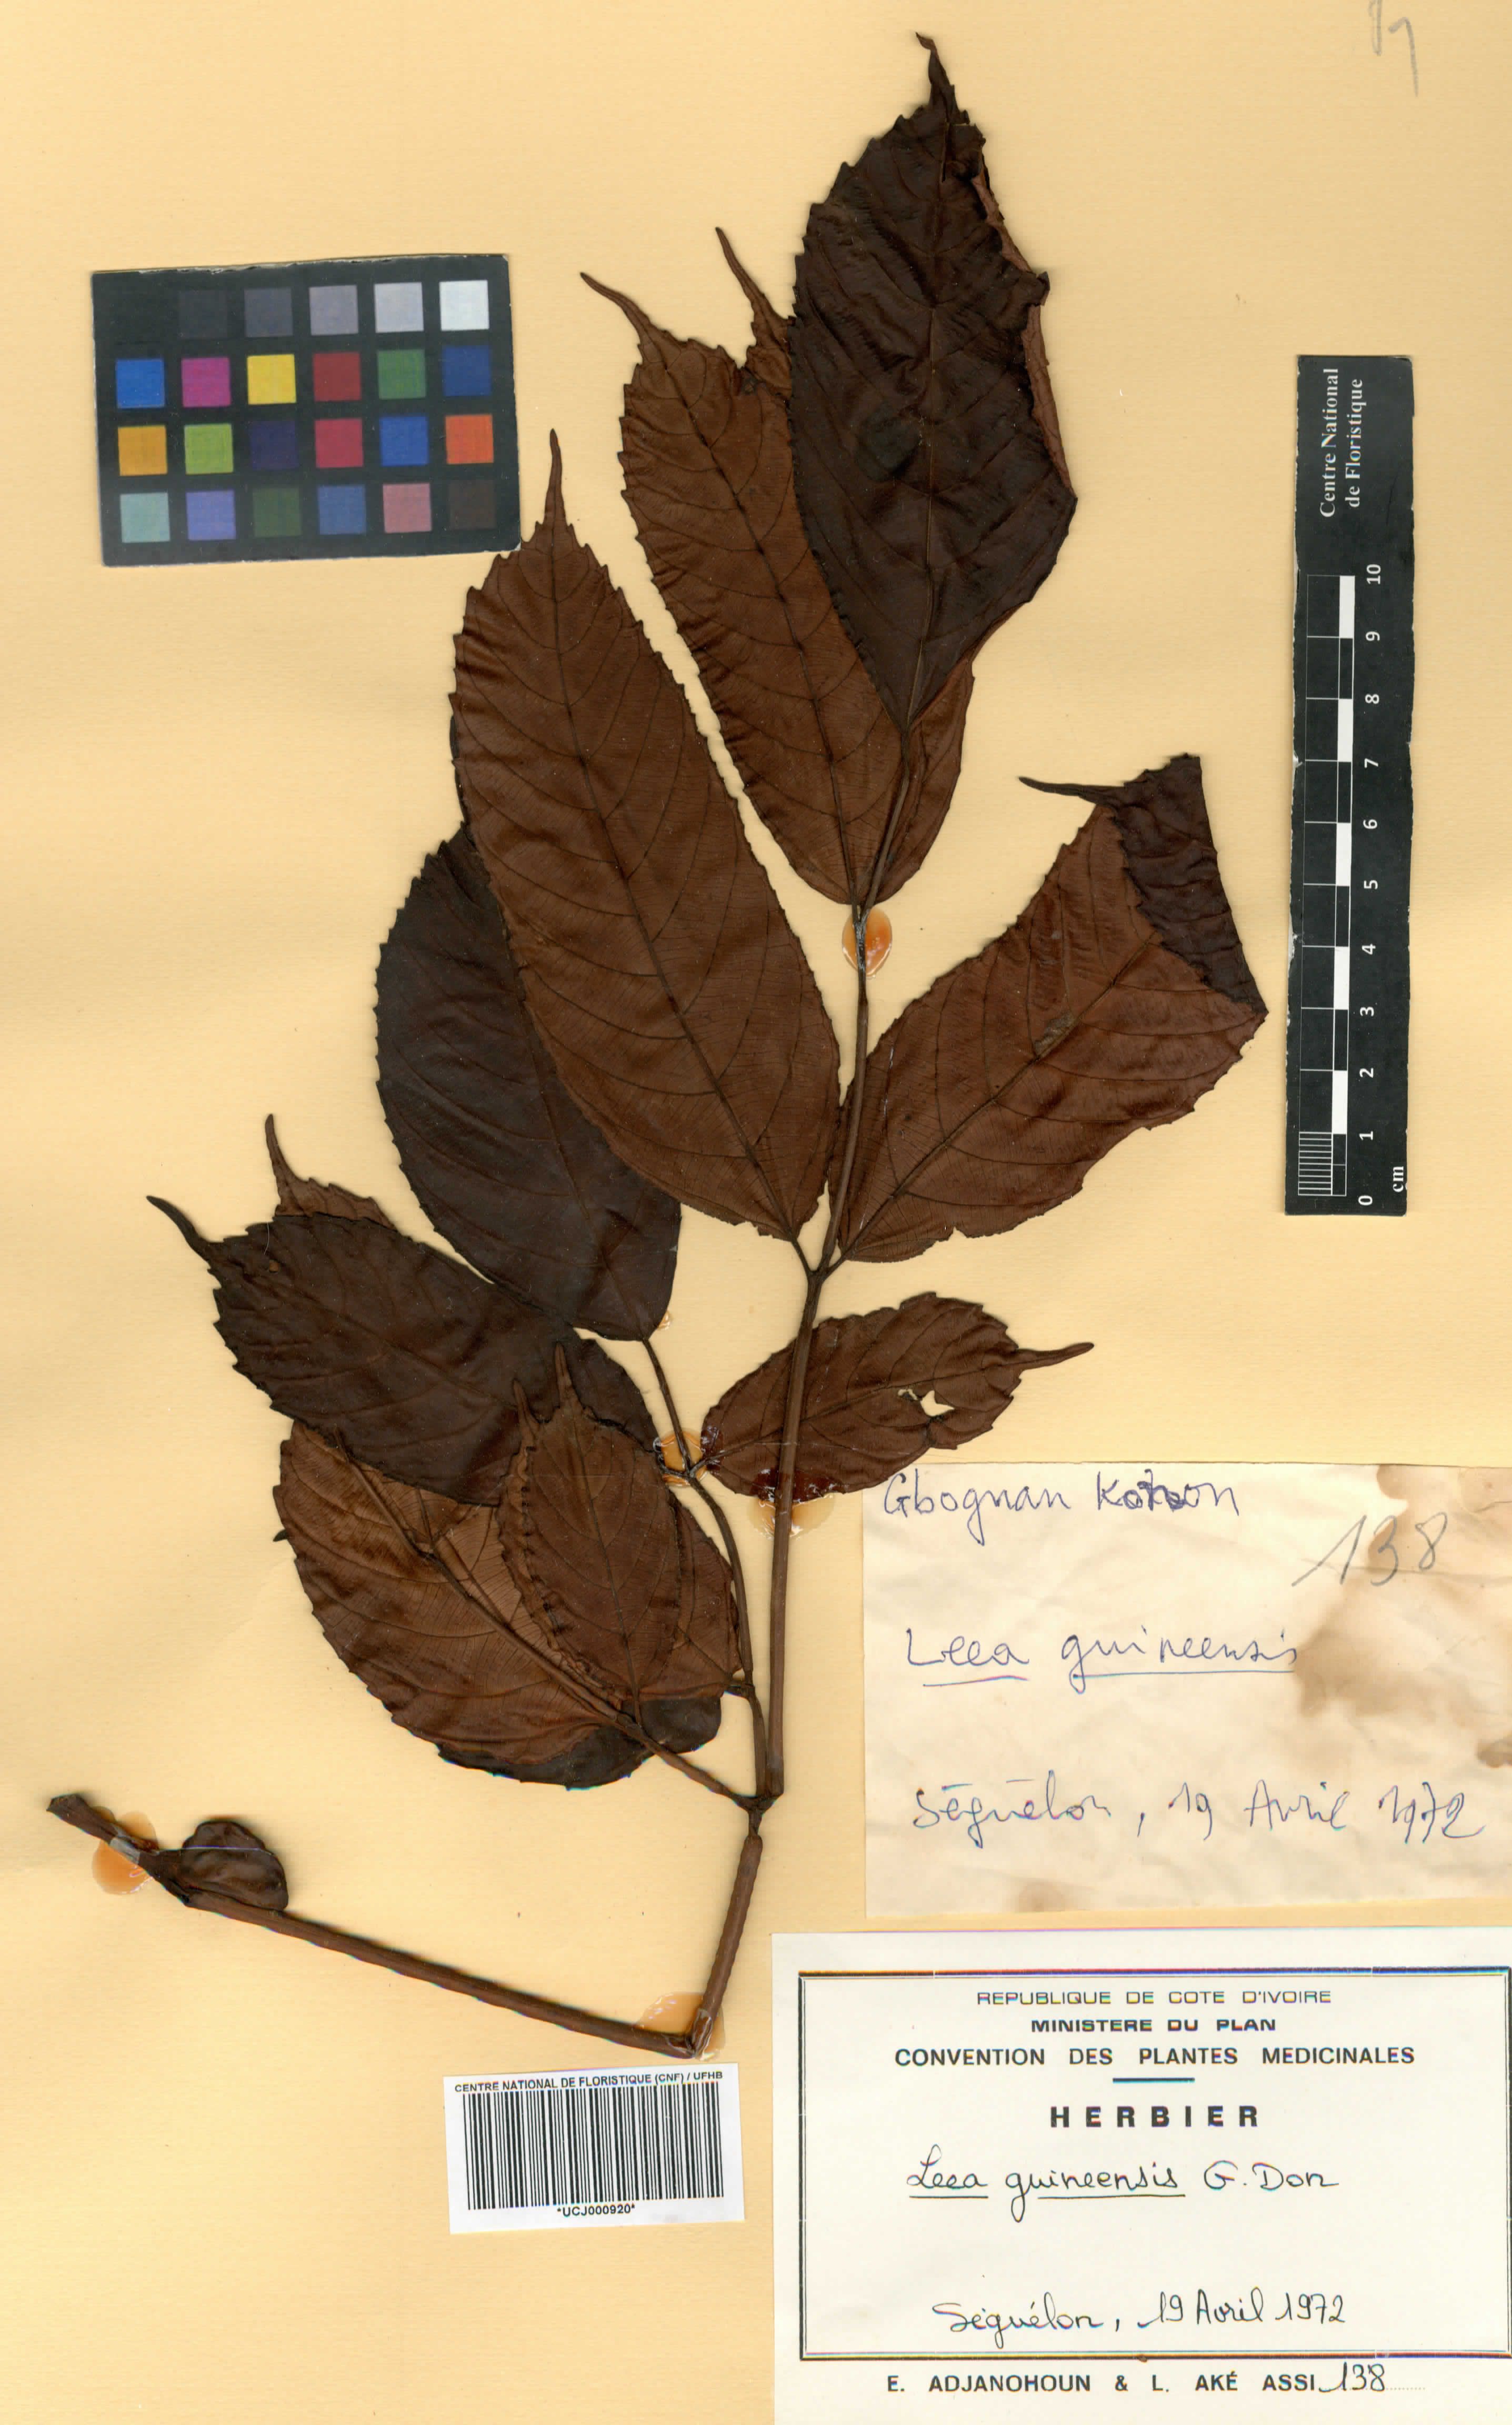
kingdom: Plantae
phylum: Tracheophyta
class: Magnoliopsida
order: Vitales
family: Vitaceae
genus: Leea
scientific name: Leea guineensis
